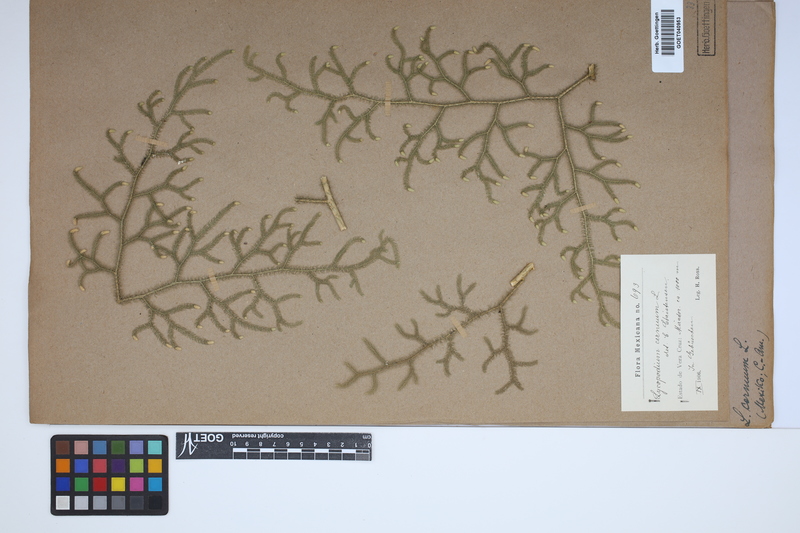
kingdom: Plantae
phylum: Tracheophyta
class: Lycopodiopsida
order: Lycopodiales
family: Lycopodiaceae
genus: Palhinhaea
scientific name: Palhinhaea cernua
